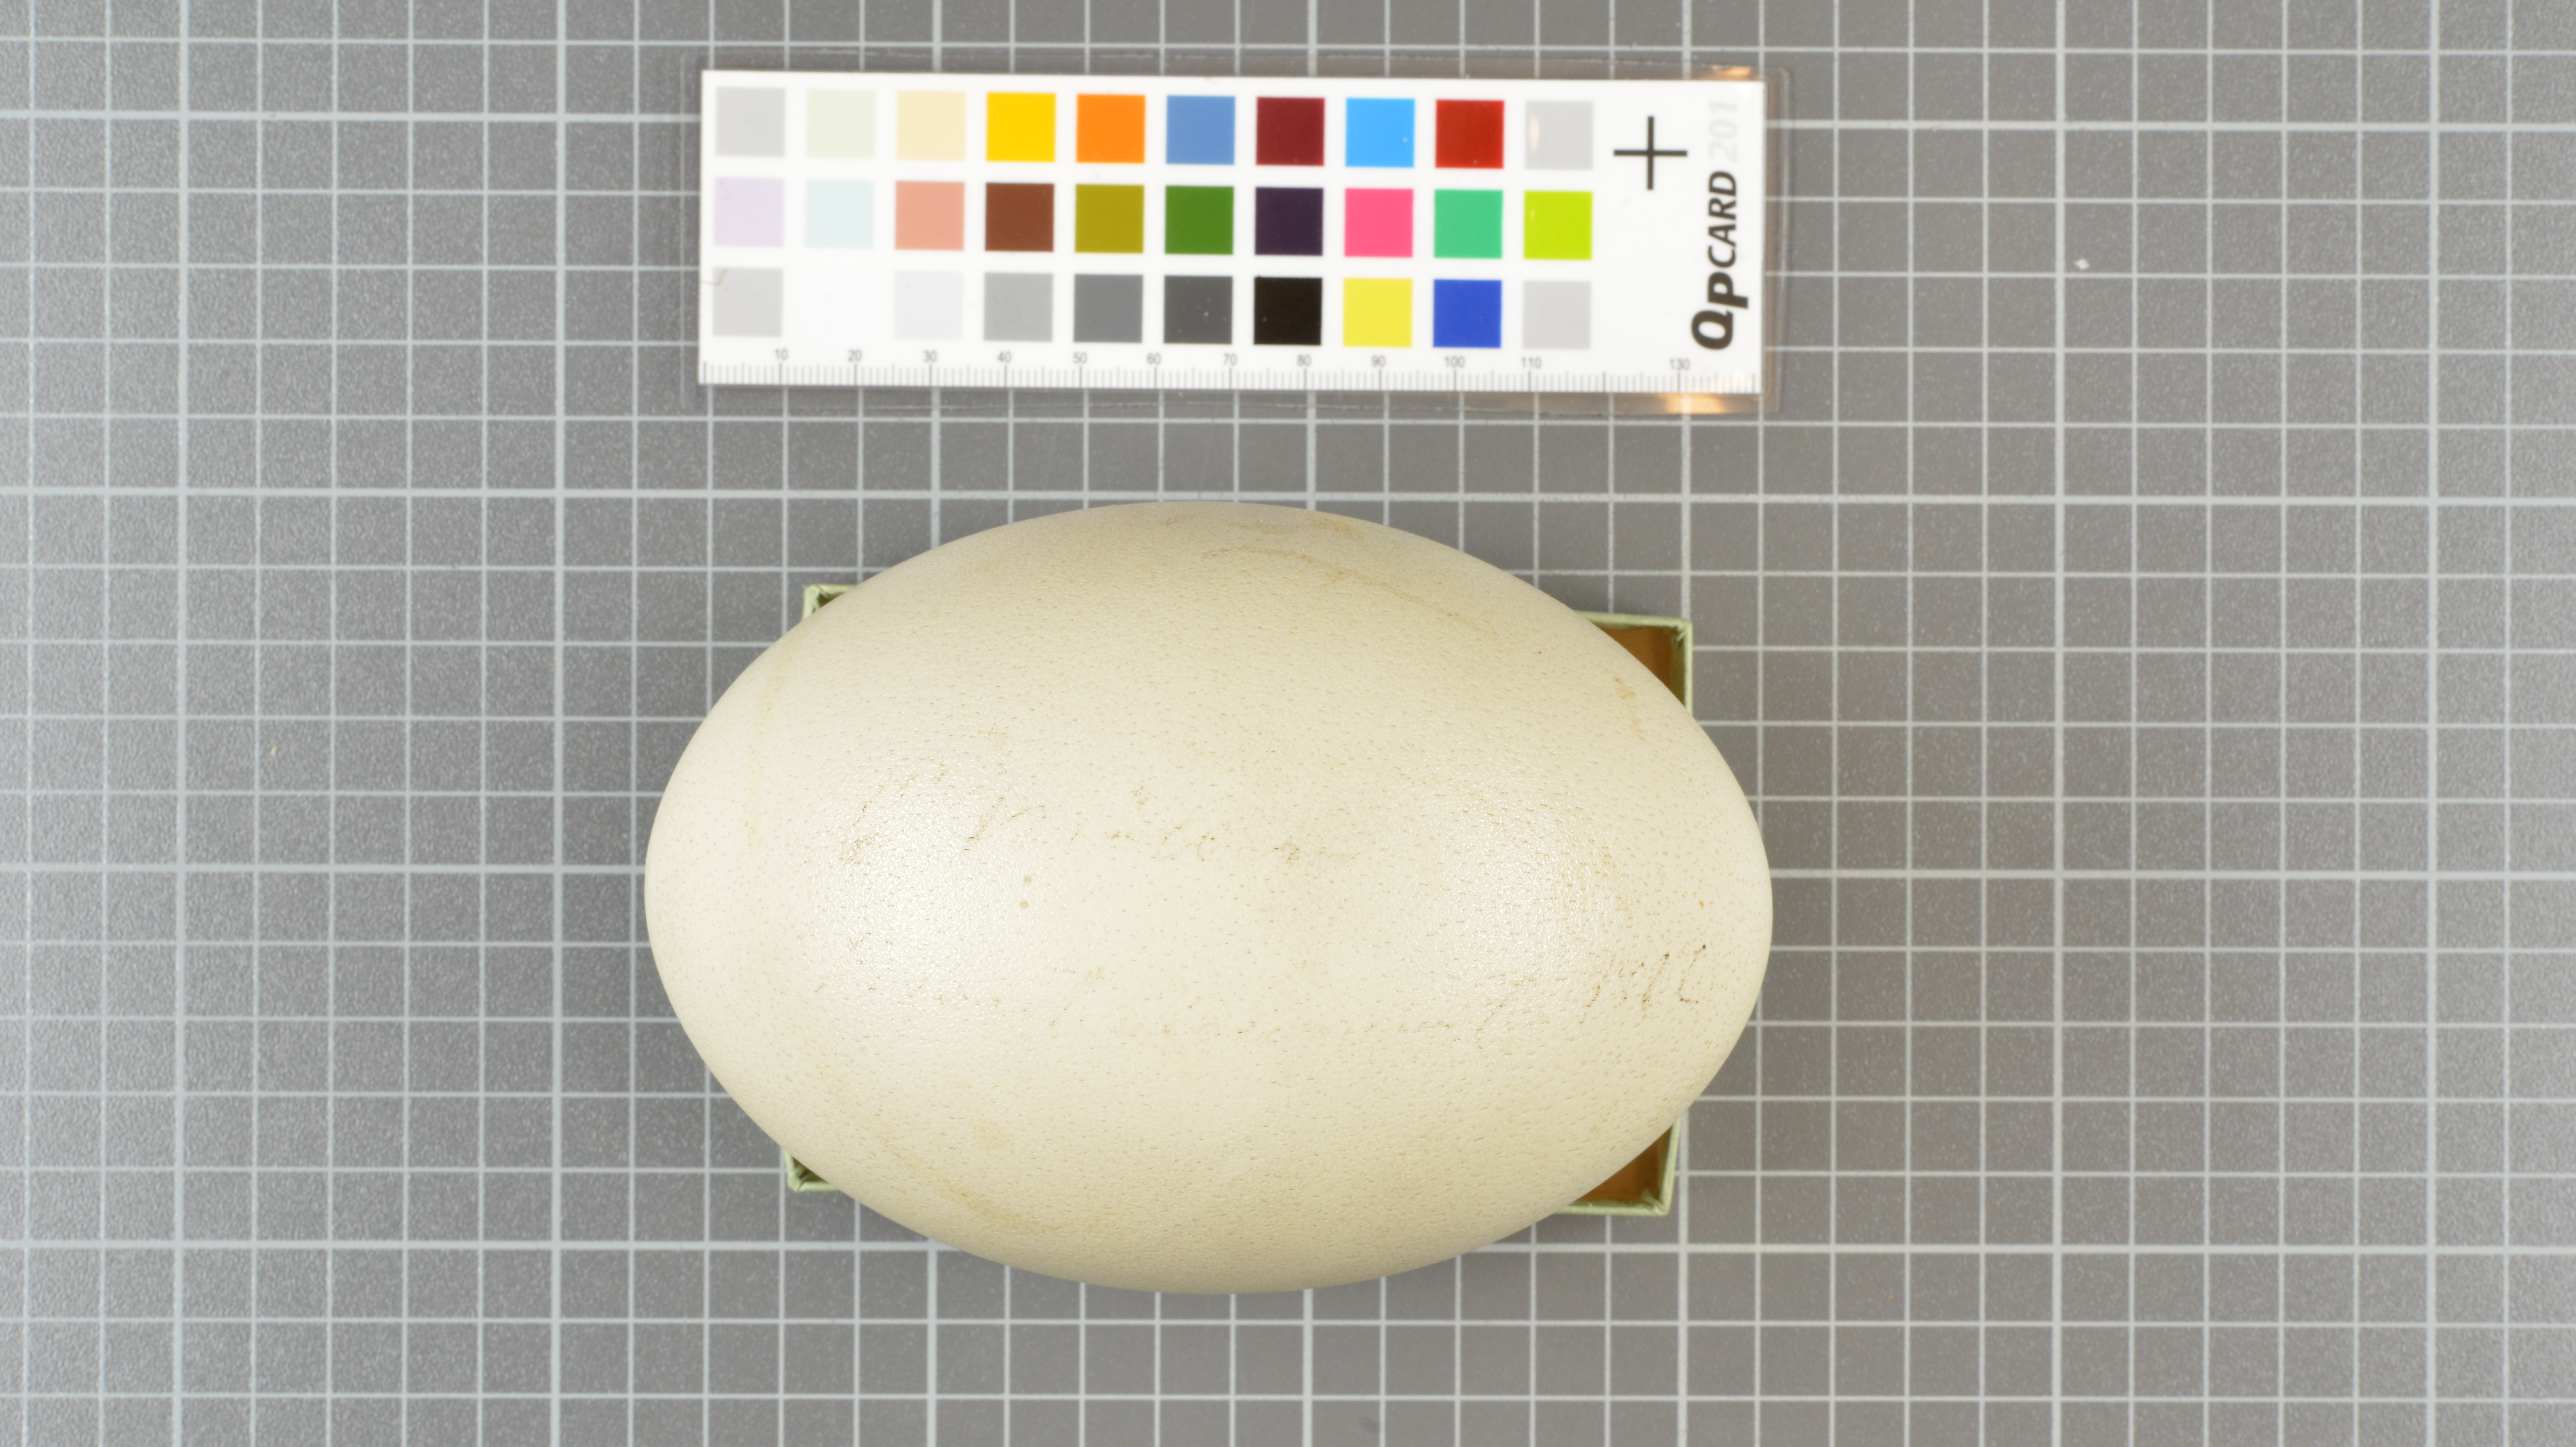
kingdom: Animalia
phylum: Chordata
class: Aves
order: Struthioniformes
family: Struthionidae
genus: Struthio
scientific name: Struthio camelus
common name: Common ostrich
